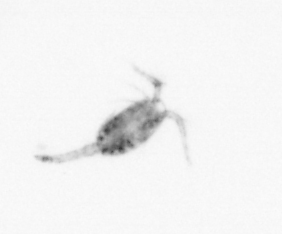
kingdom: Animalia
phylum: Arthropoda
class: Copepoda
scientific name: Copepoda
